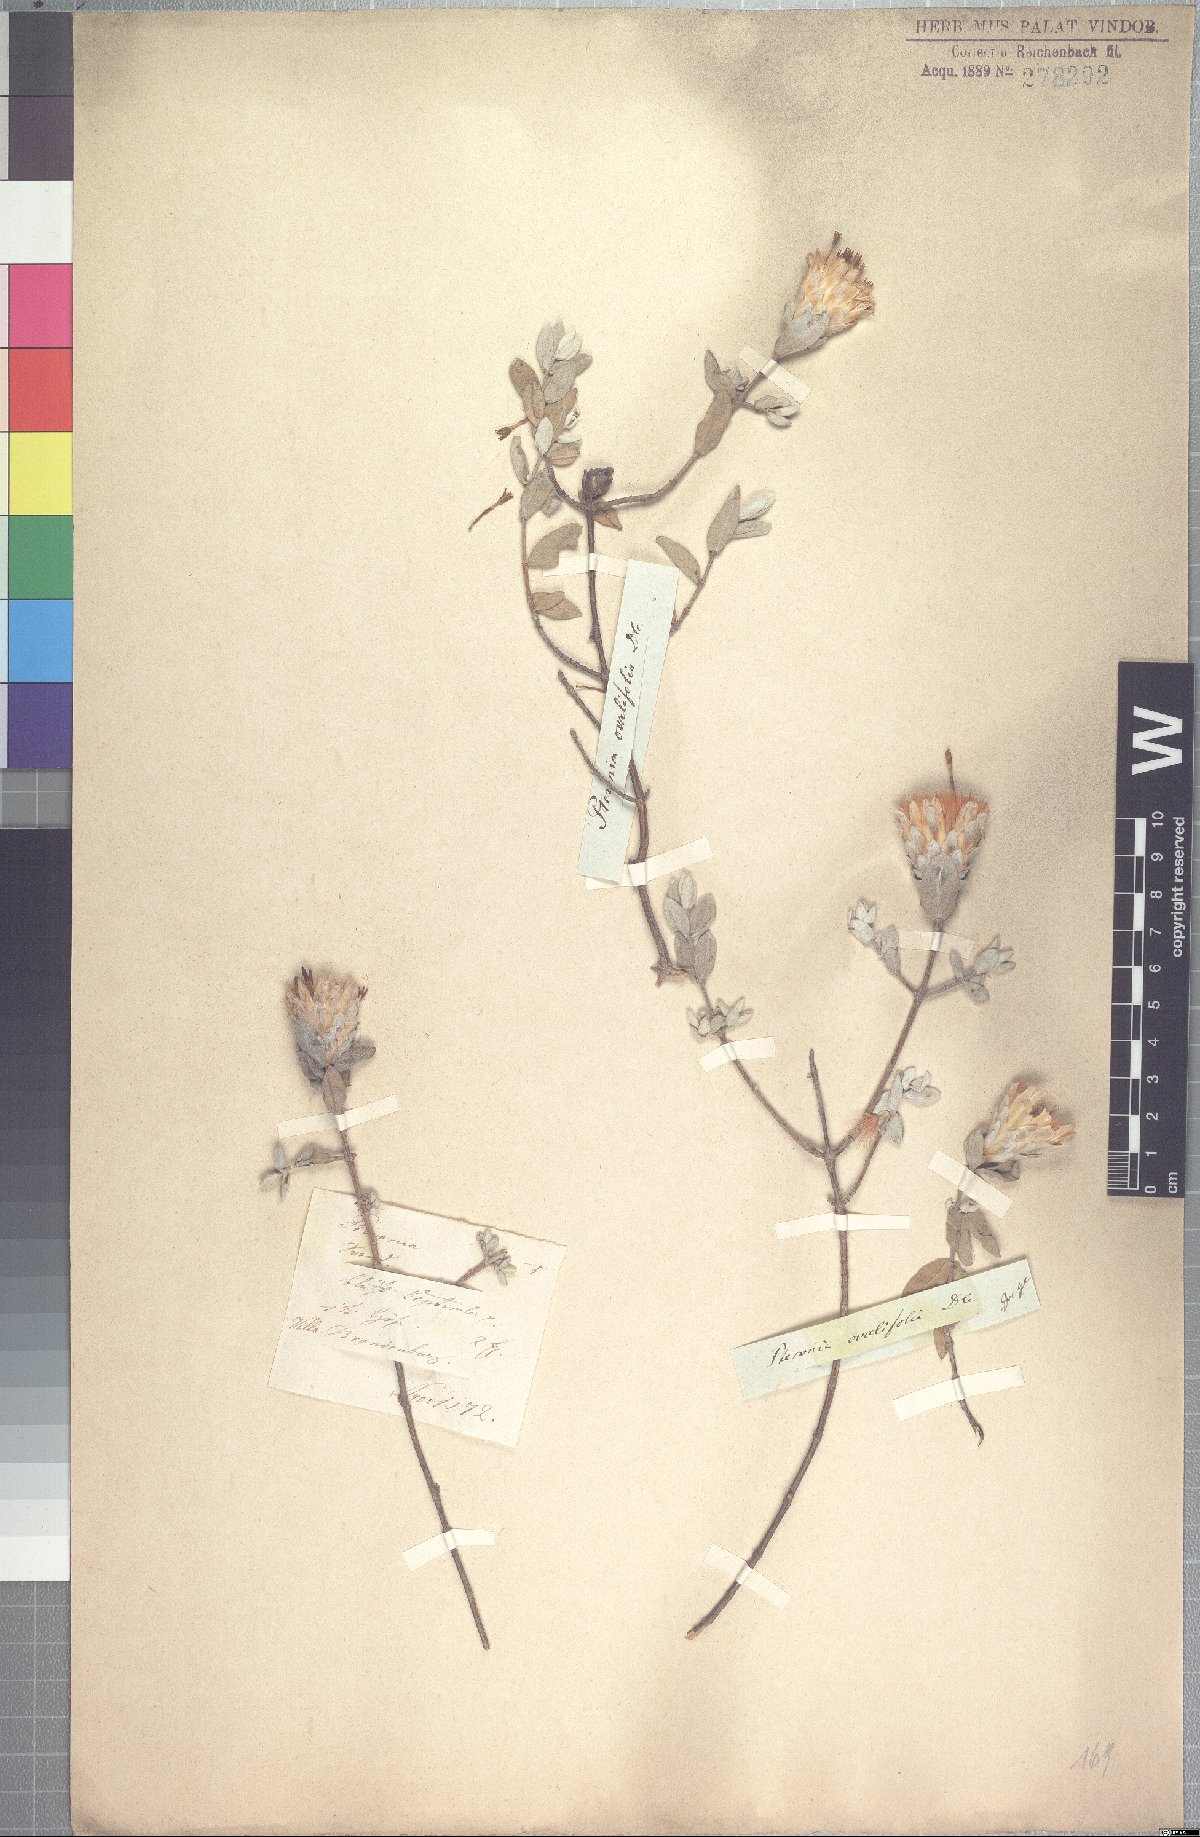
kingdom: Plantae
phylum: Tracheophyta
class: Magnoliopsida
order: Asterales
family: Asteraceae
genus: Pteronia
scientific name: Pteronia ovalifolia
